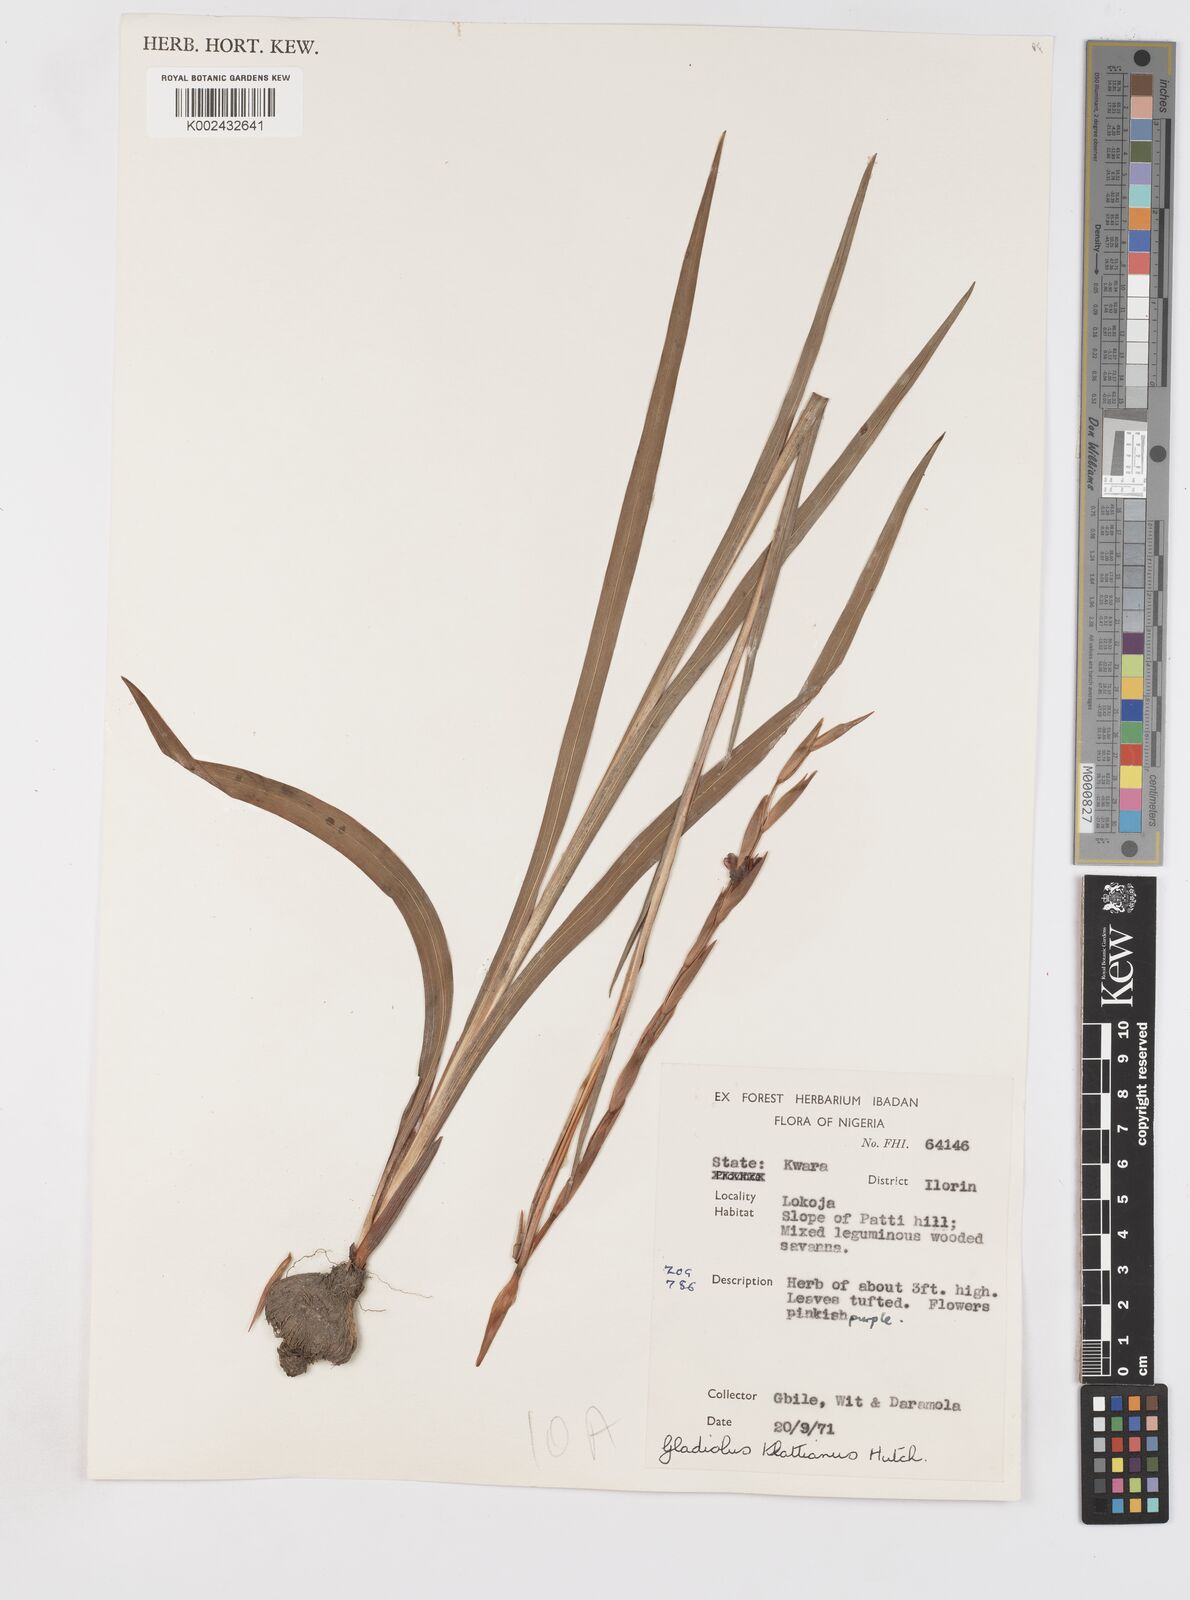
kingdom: Plantae
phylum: Tracheophyta
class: Liliopsida
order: Asparagales
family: Iridaceae
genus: Gladiolus
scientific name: Gladiolus gregarius
